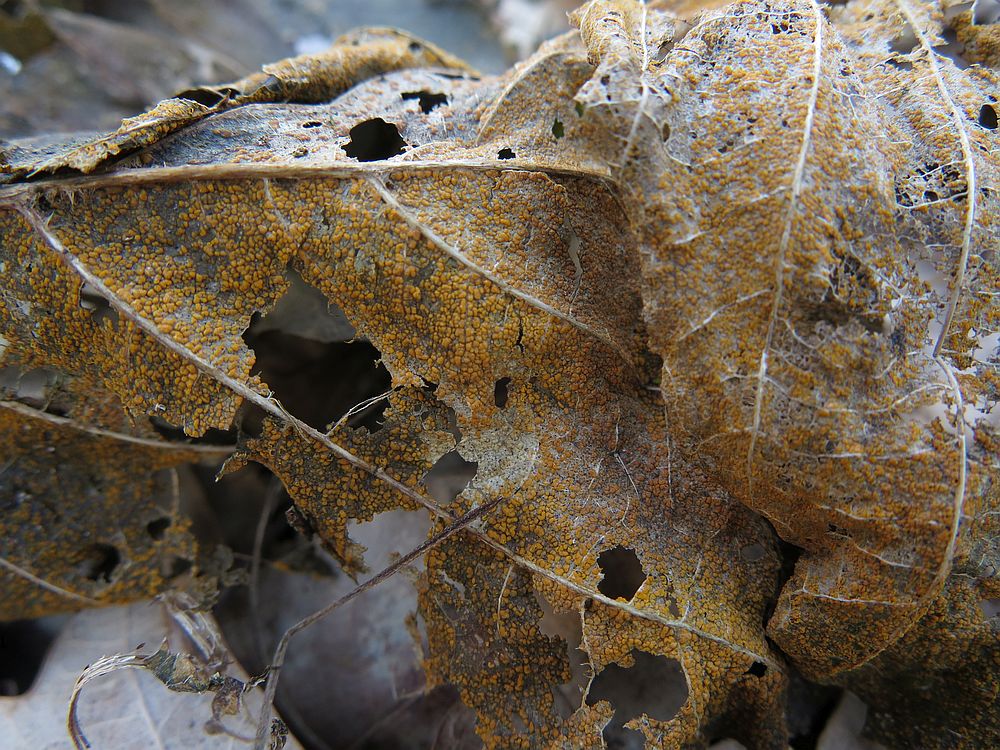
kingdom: Fungi
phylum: Basidiomycota
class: Pucciniomycetes
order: Pucciniales
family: Pucciniastraceae
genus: Melampsoridium
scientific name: Melampsoridium betulinum
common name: Birch rust
